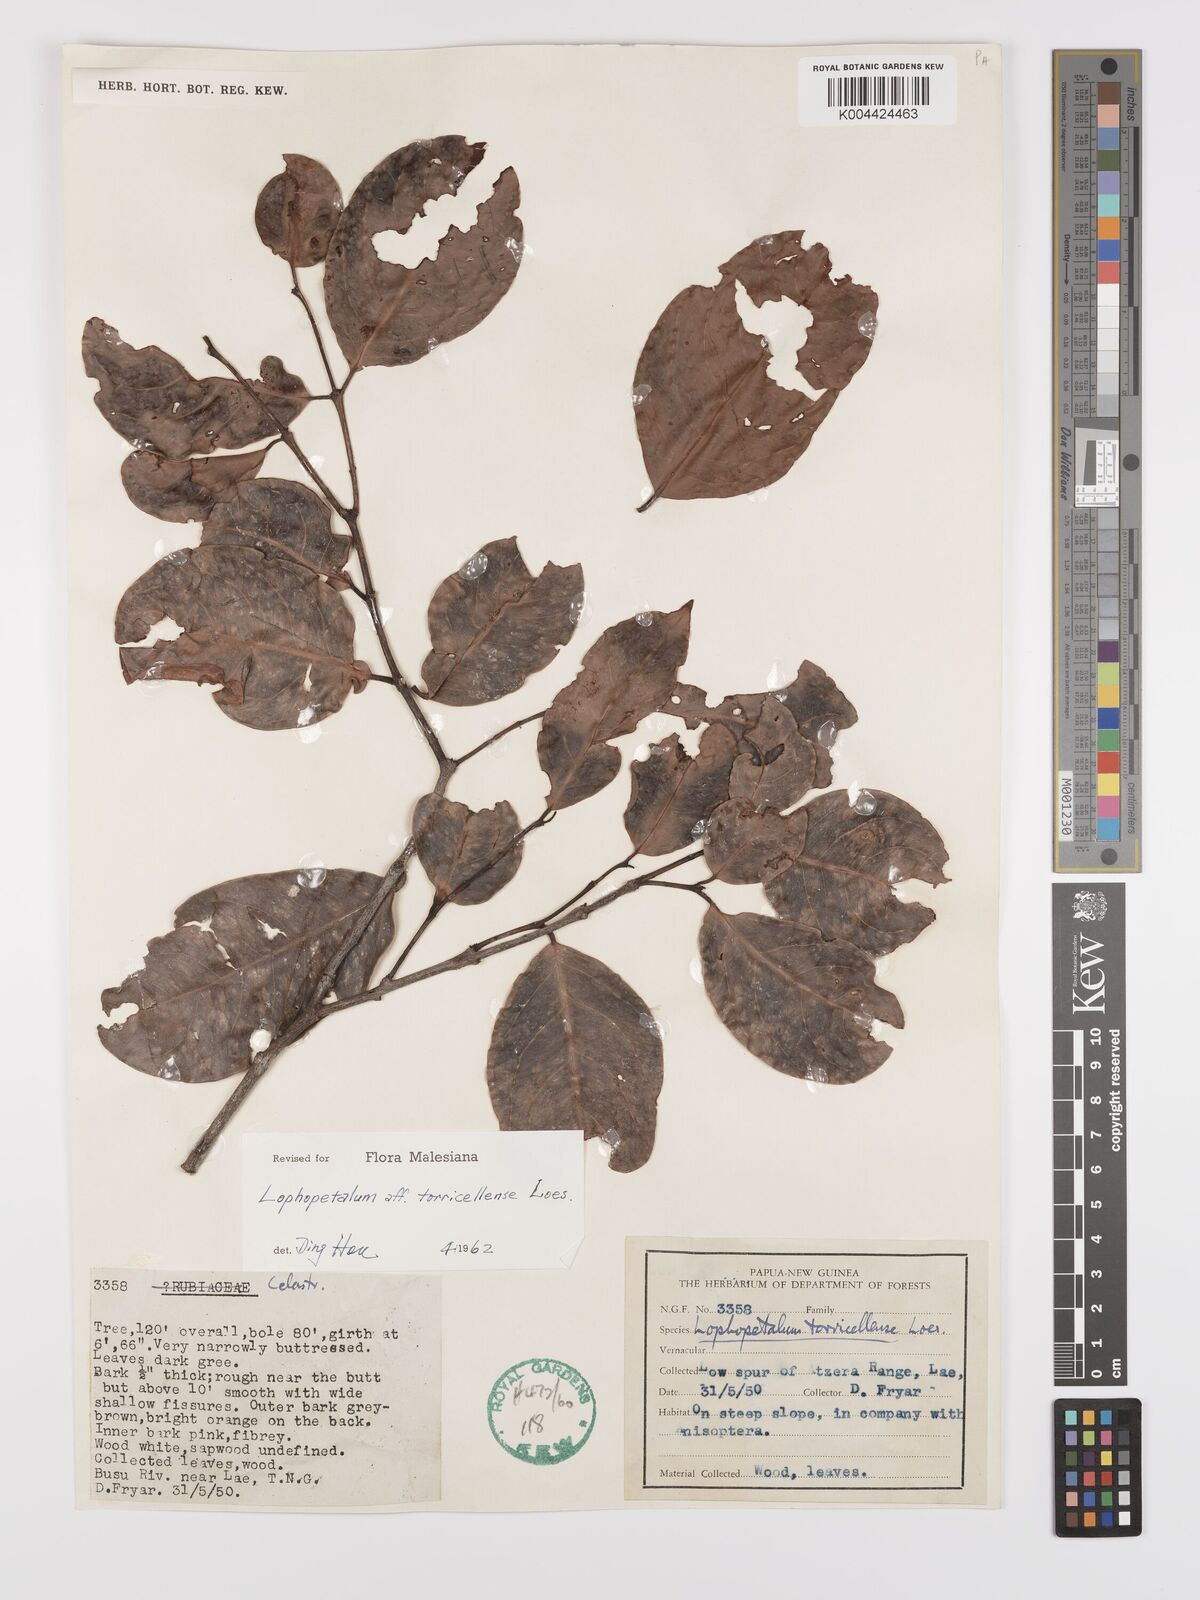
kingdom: Plantae
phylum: Tracheophyta
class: Magnoliopsida
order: Celastrales
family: Celastraceae
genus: Lophopetalum
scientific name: Lophopetalum torricellense
